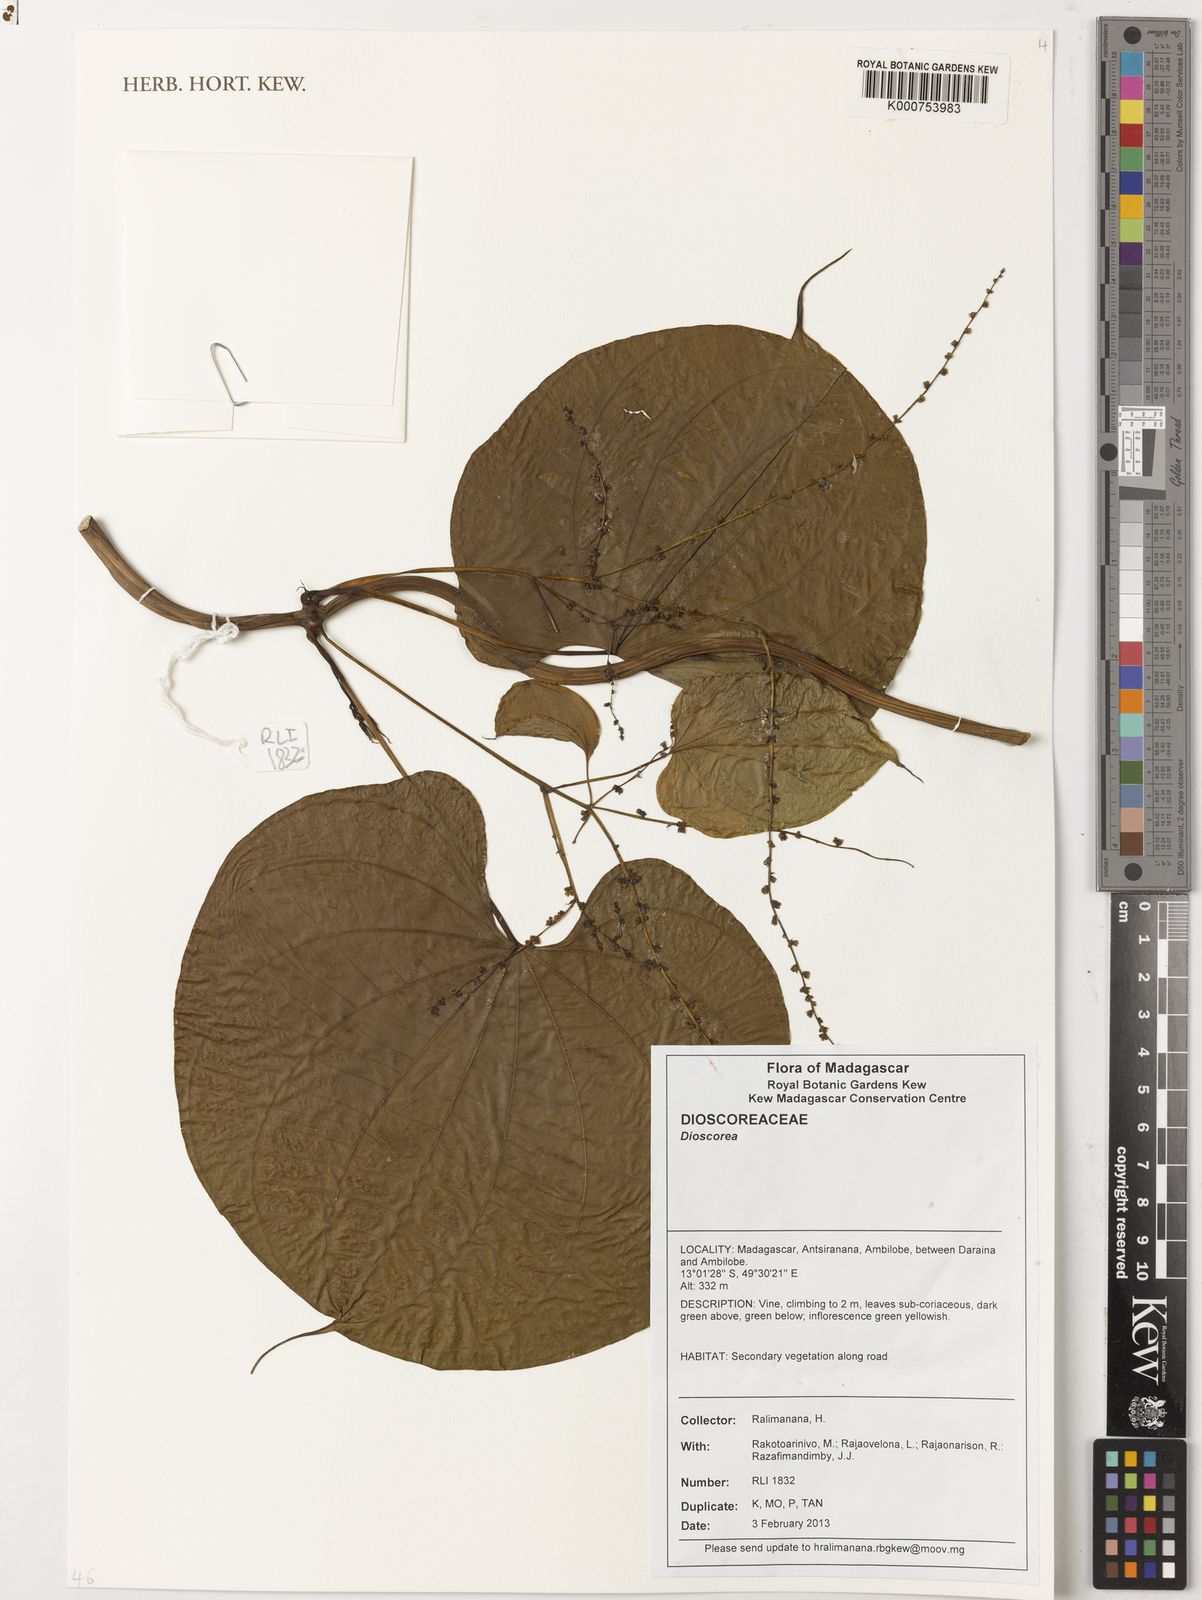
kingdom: Plantae
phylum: Tracheophyta
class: Liliopsida
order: Dioscoreales
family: Dioscoreaceae
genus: Dioscorea
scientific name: Dioscorea
